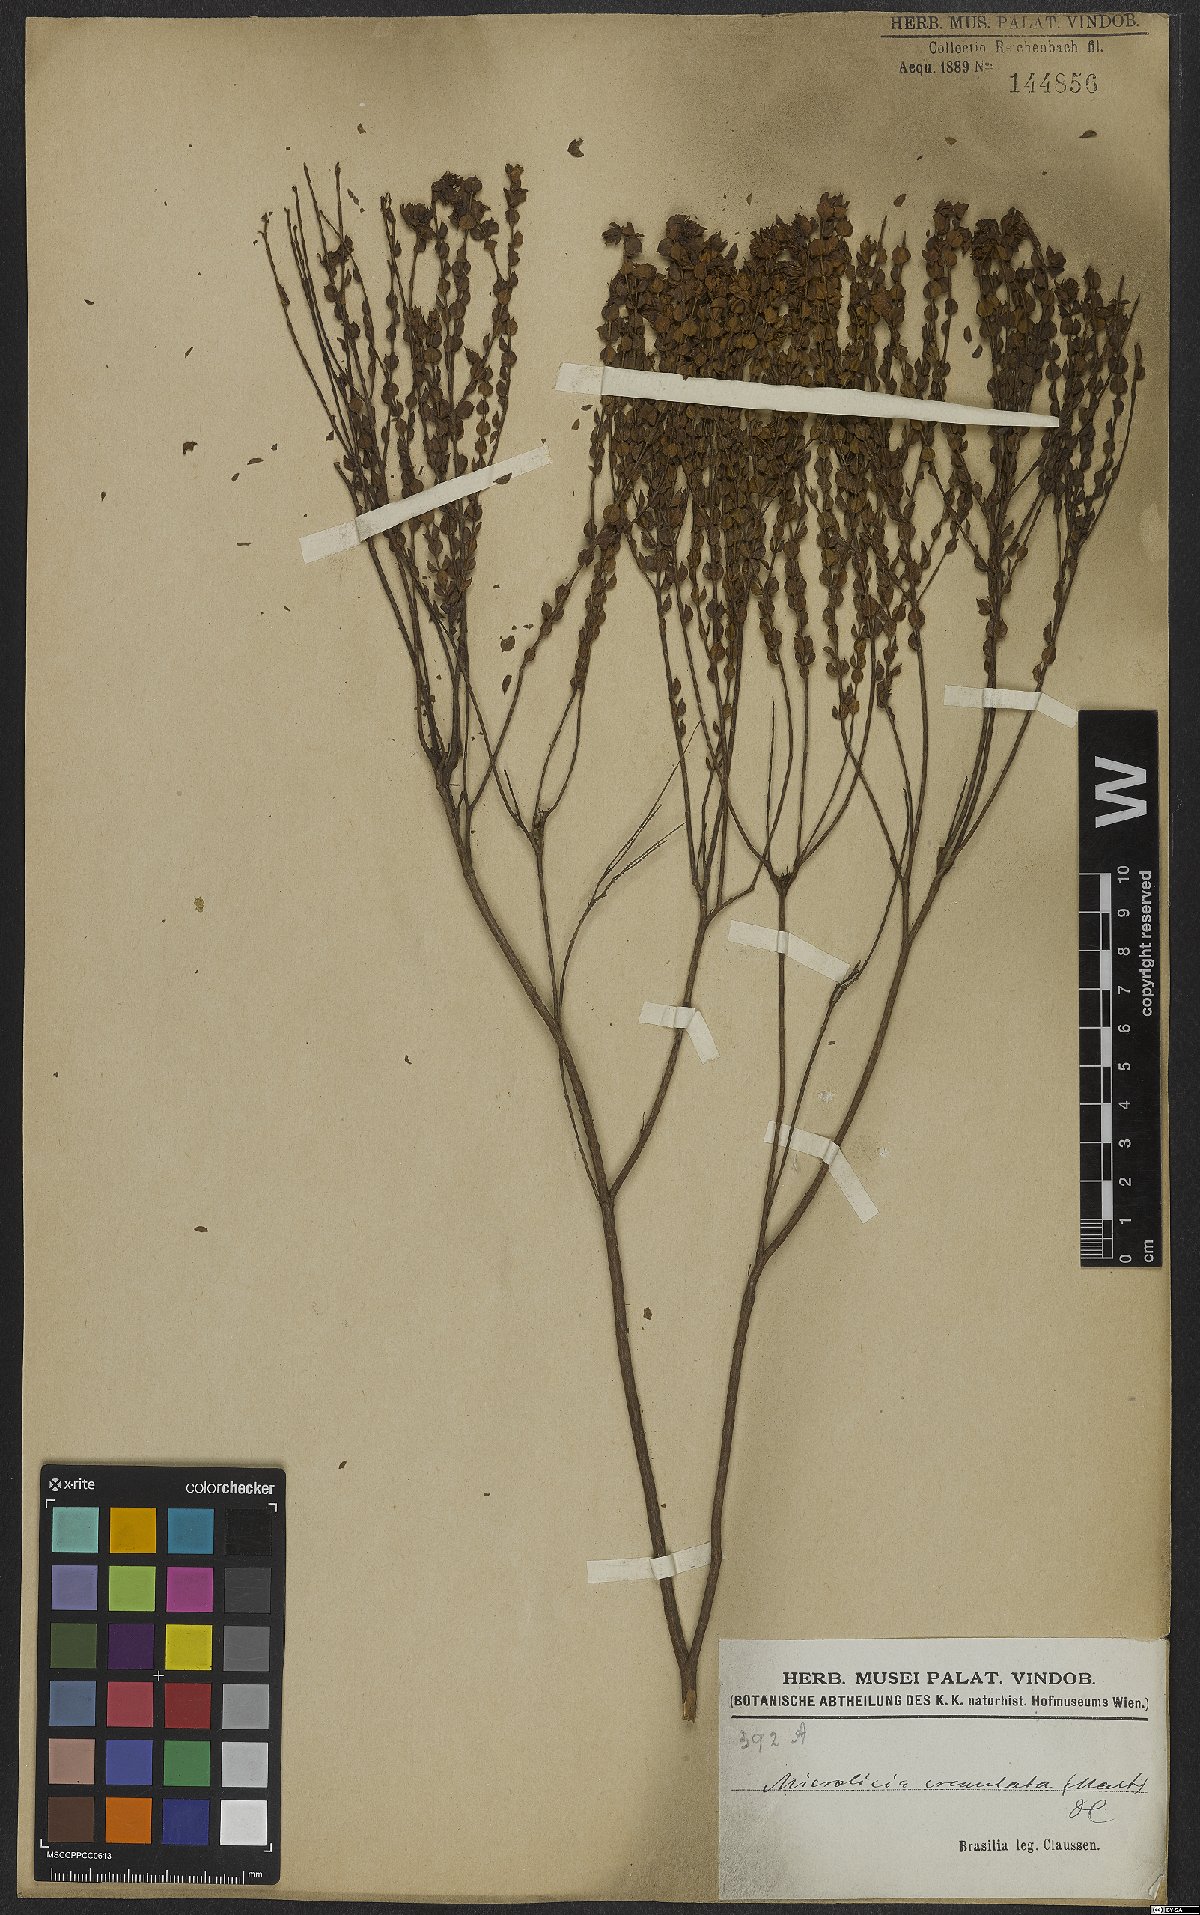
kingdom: Plantae
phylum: Tracheophyta
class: Magnoliopsida
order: Myrtales
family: Melastomataceae
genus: Microlicia
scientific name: Microlicia crenulata
